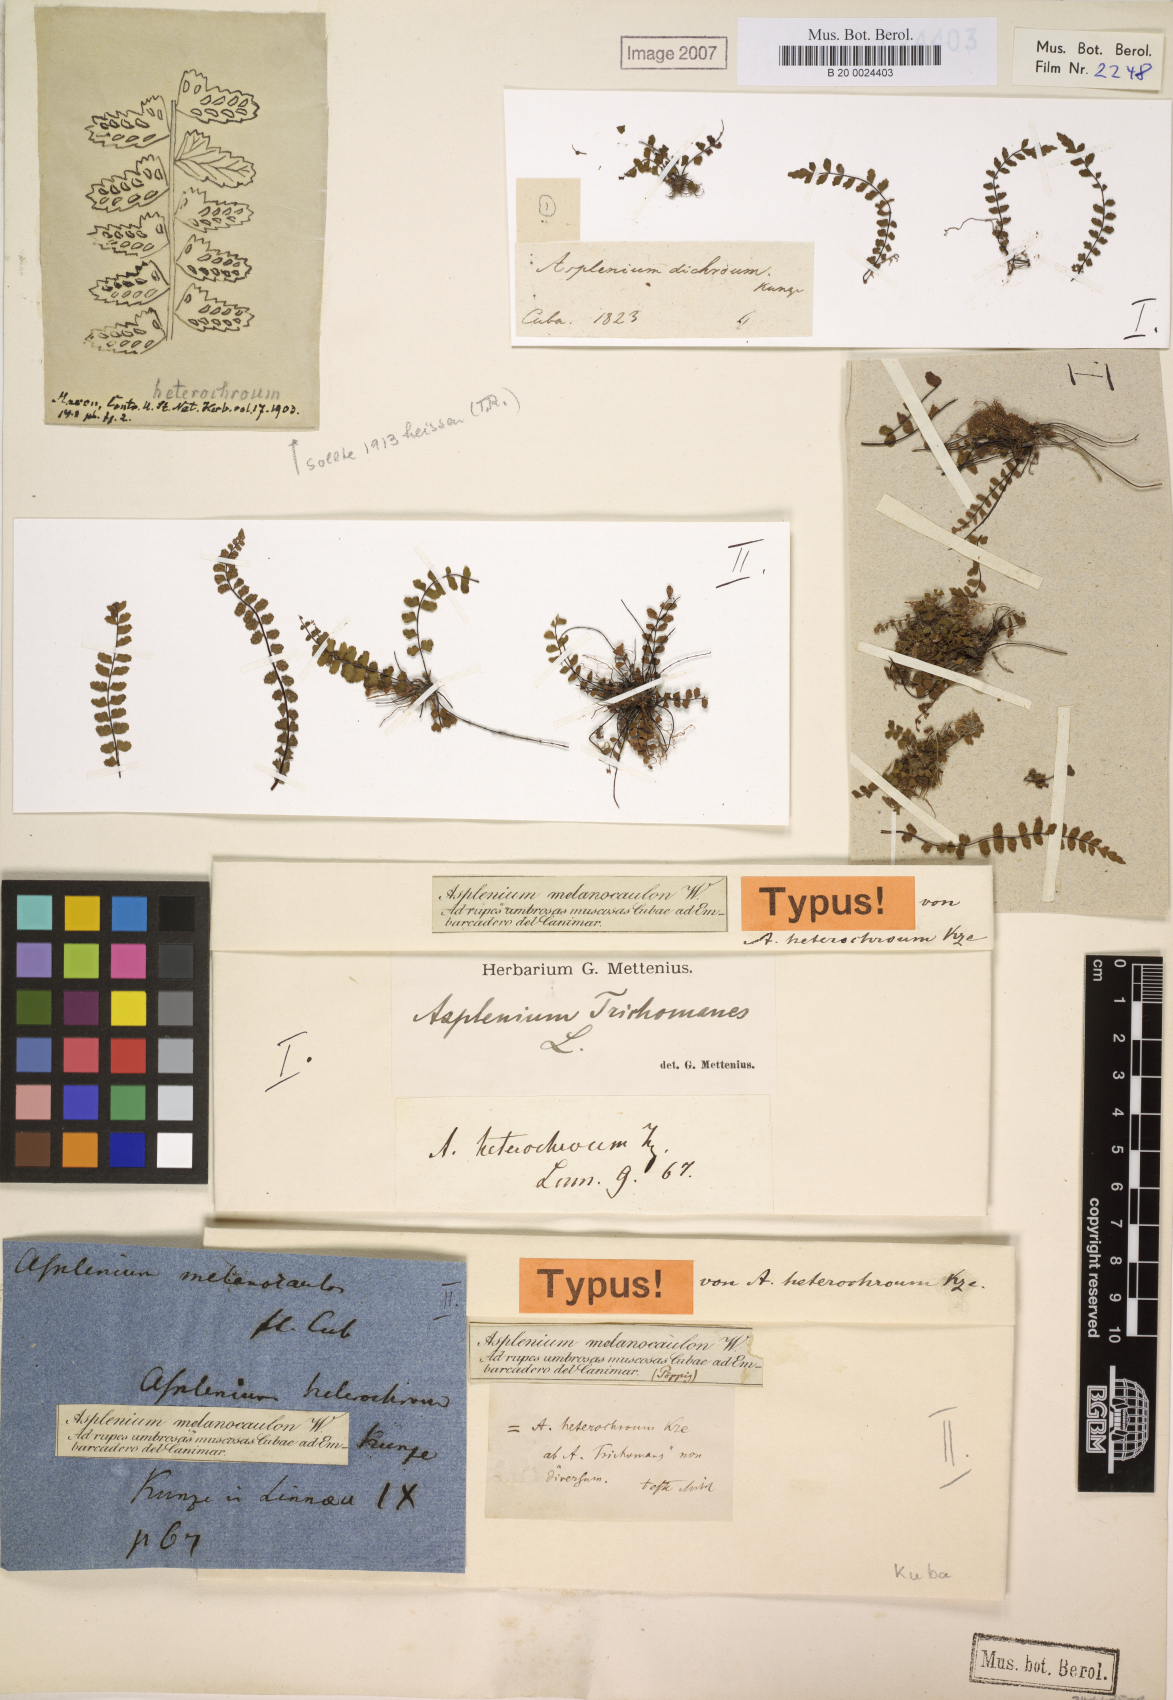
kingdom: Plantae
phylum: Tracheophyta
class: Polypodiopsida
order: Polypodiales
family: Aspleniaceae
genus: Asplenium
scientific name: Asplenium heterochroum
